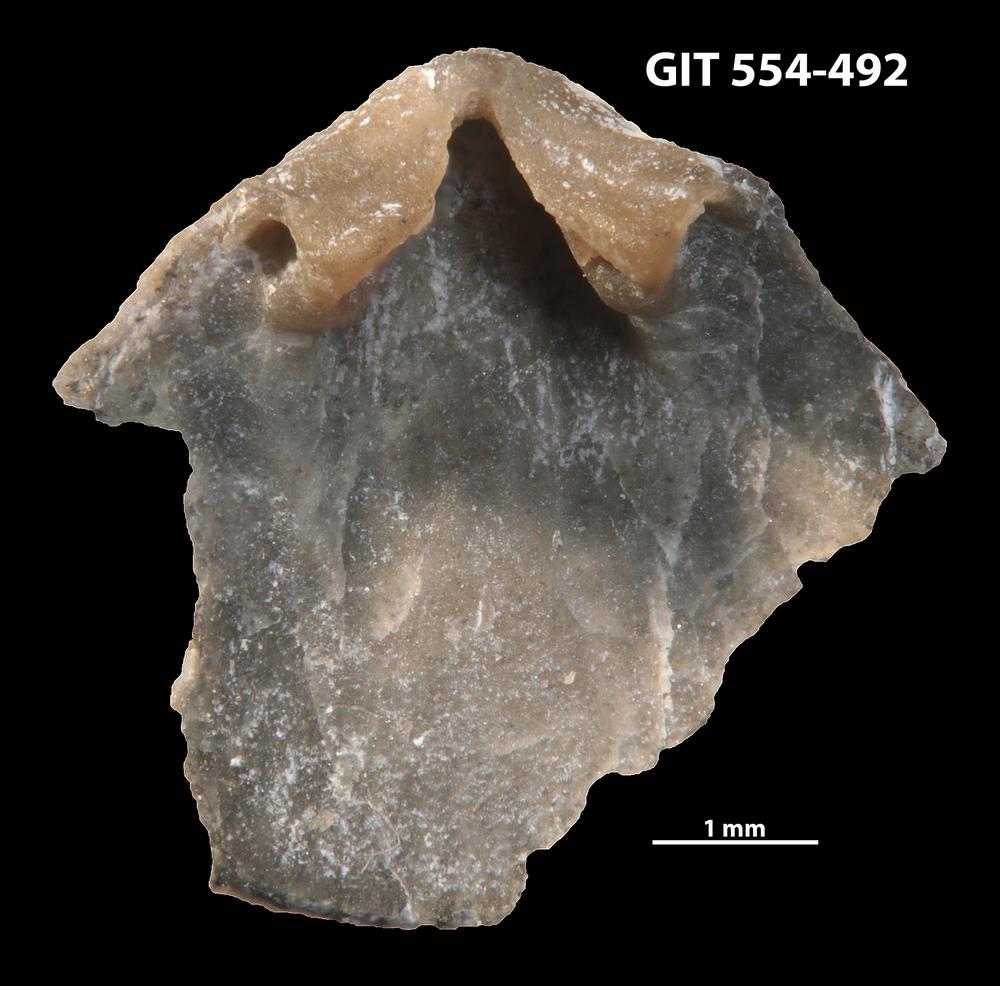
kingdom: Animalia
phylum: Brachiopoda
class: Rhynchonellata
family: Dalmanellidae
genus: Isorthis
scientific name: Isorthis parvulus
